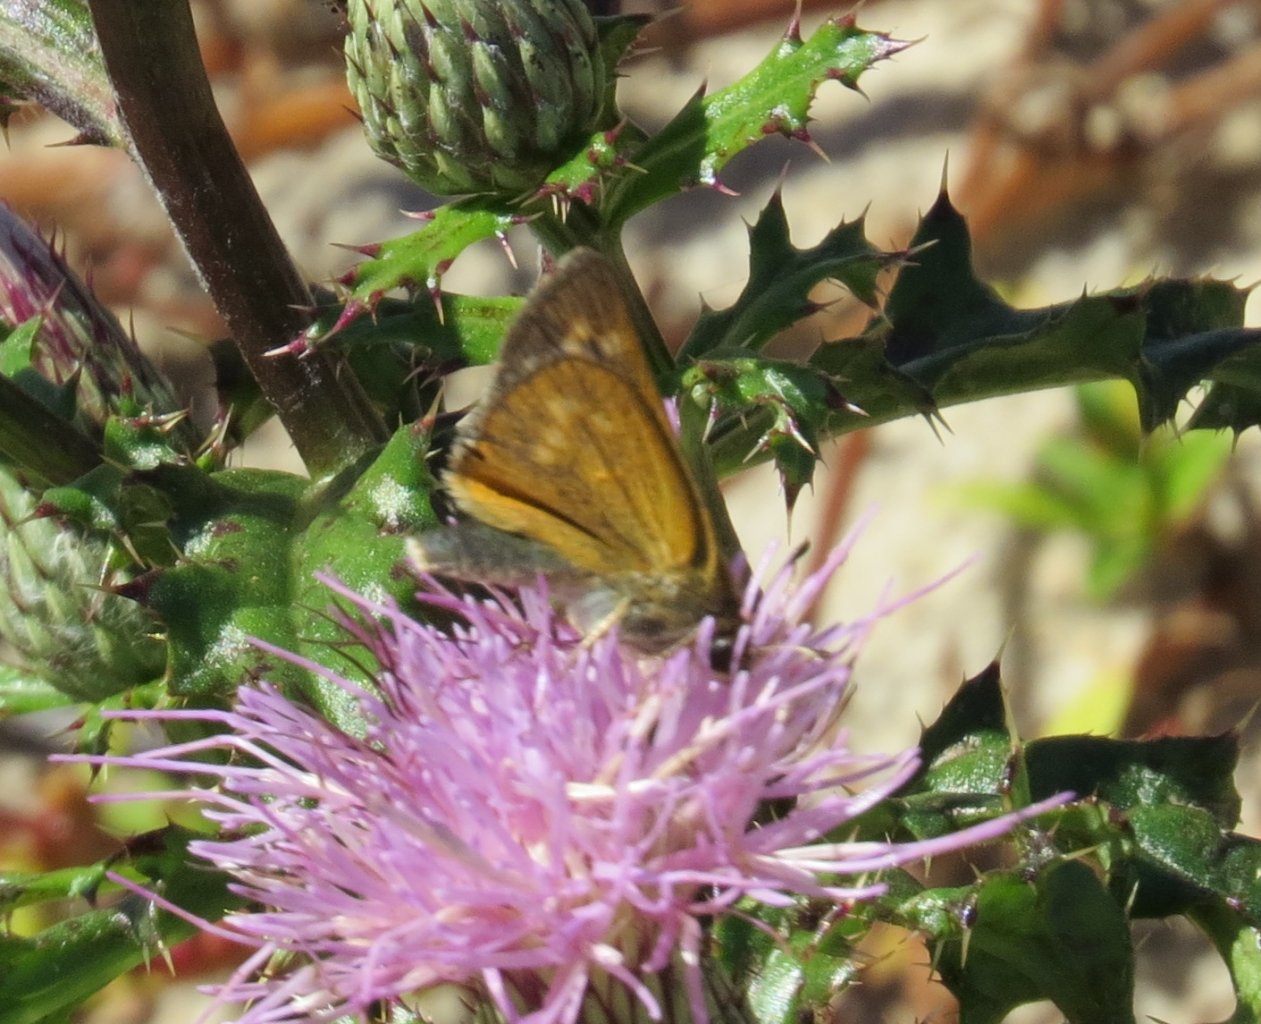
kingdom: Animalia
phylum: Arthropoda
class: Insecta
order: Lepidoptera
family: Hesperiidae
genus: Hesperia
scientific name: Hesperia meskei
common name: Meske's Skipper
